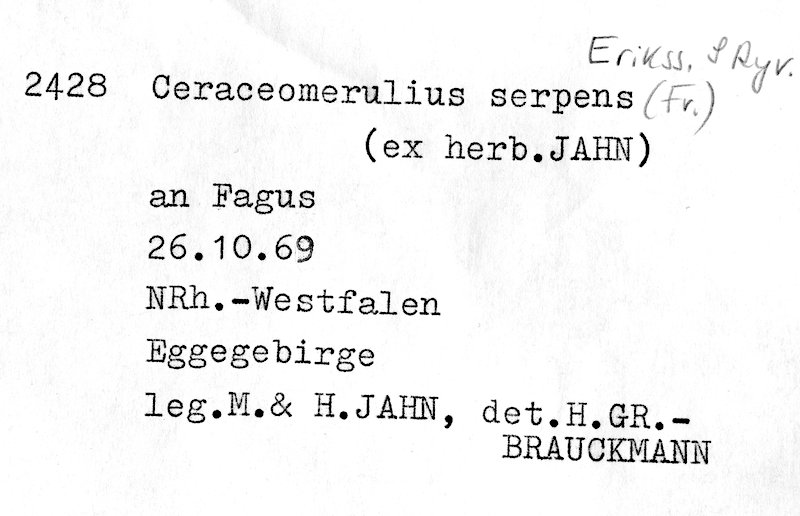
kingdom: Fungi
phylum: Basidiomycota
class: Agaricomycetes
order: Polyporales
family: Irpicaceae
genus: Crystallicutis
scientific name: Crystallicutis serpens
